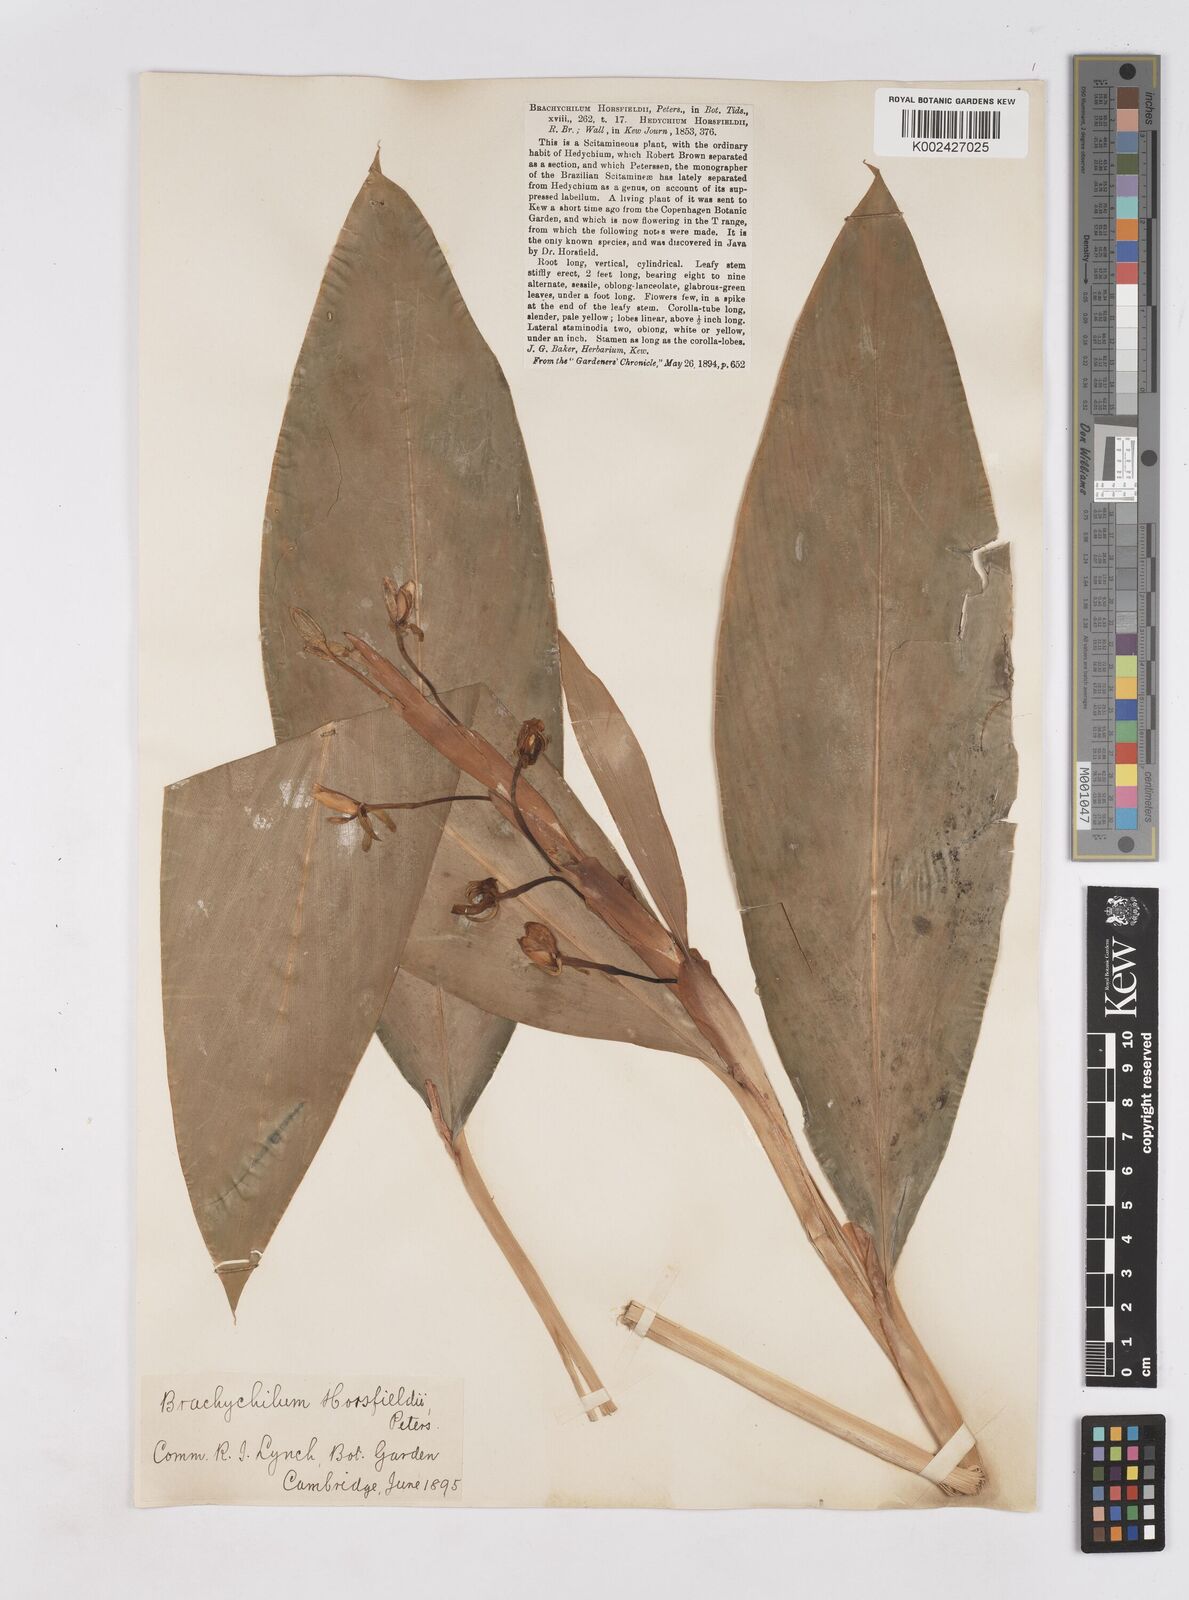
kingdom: Plantae
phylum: Tracheophyta
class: Liliopsida
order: Zingiberales
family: Zingiberaceae
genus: Hedychium
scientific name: Hedychium horsfieldii
